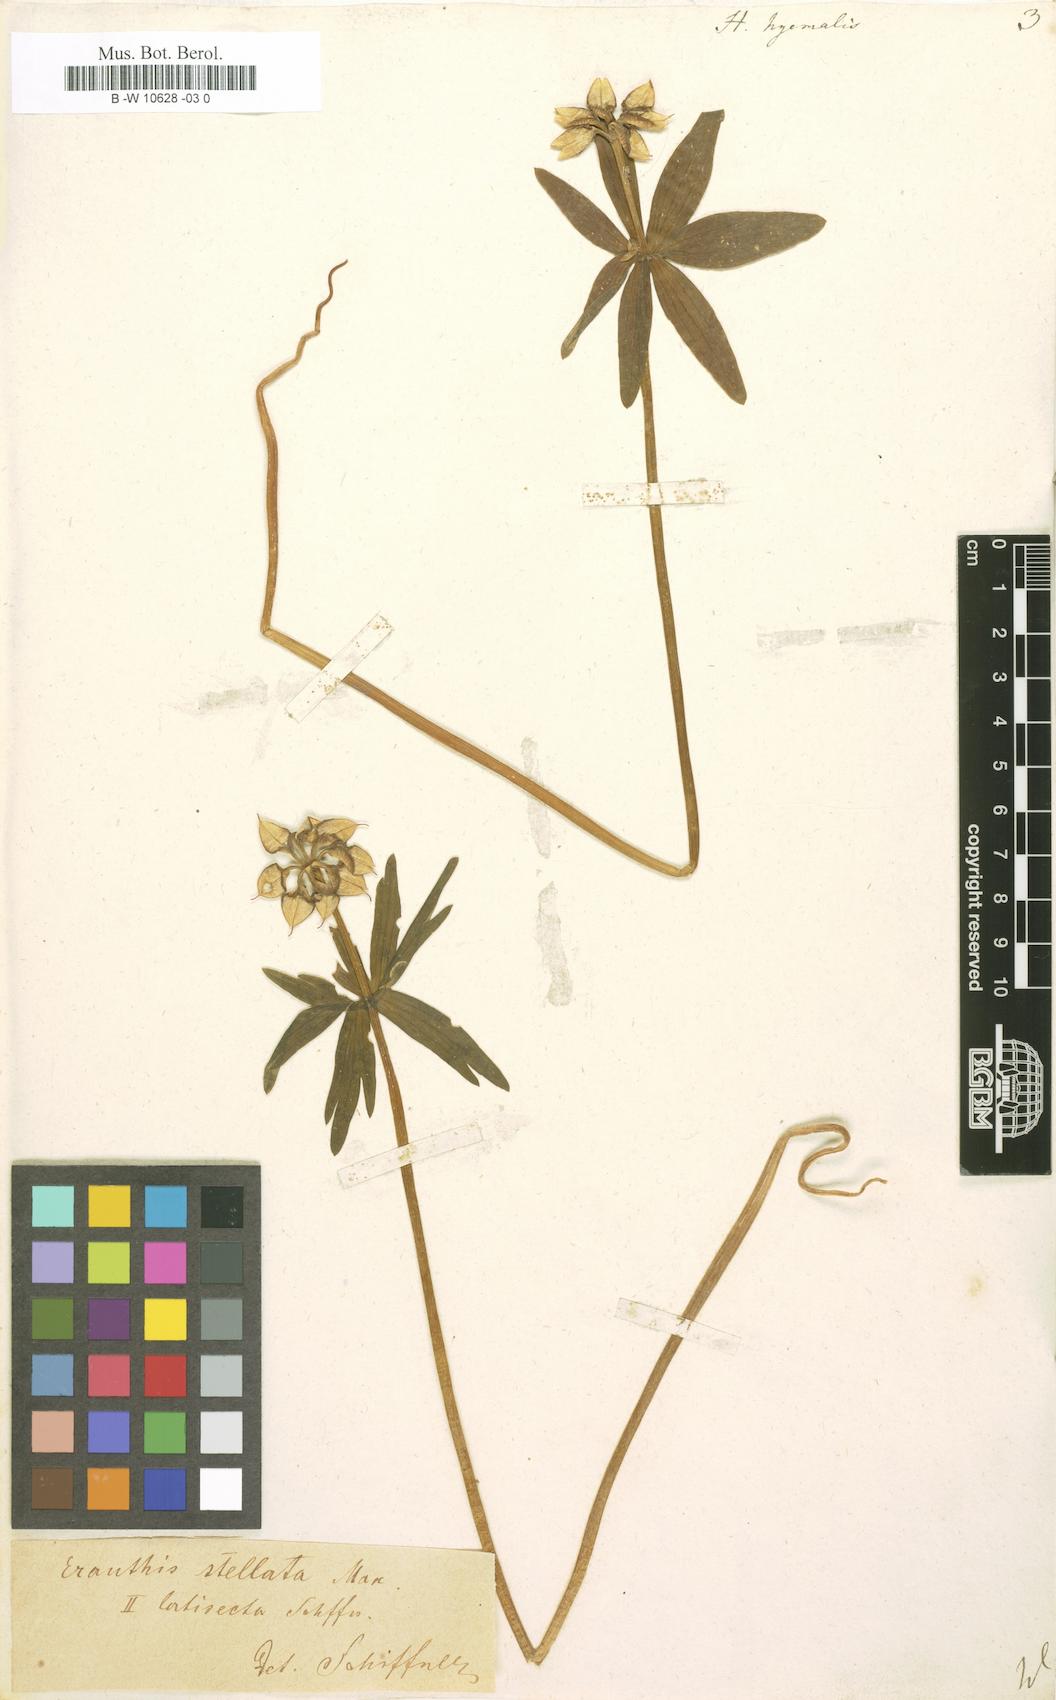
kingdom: Plantae
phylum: Tracheophyta
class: Magnoliopsida
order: Ranunculales
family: Ranunculaceae
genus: Eranthis
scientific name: Eranthis hyemalis
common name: Winter aconite
